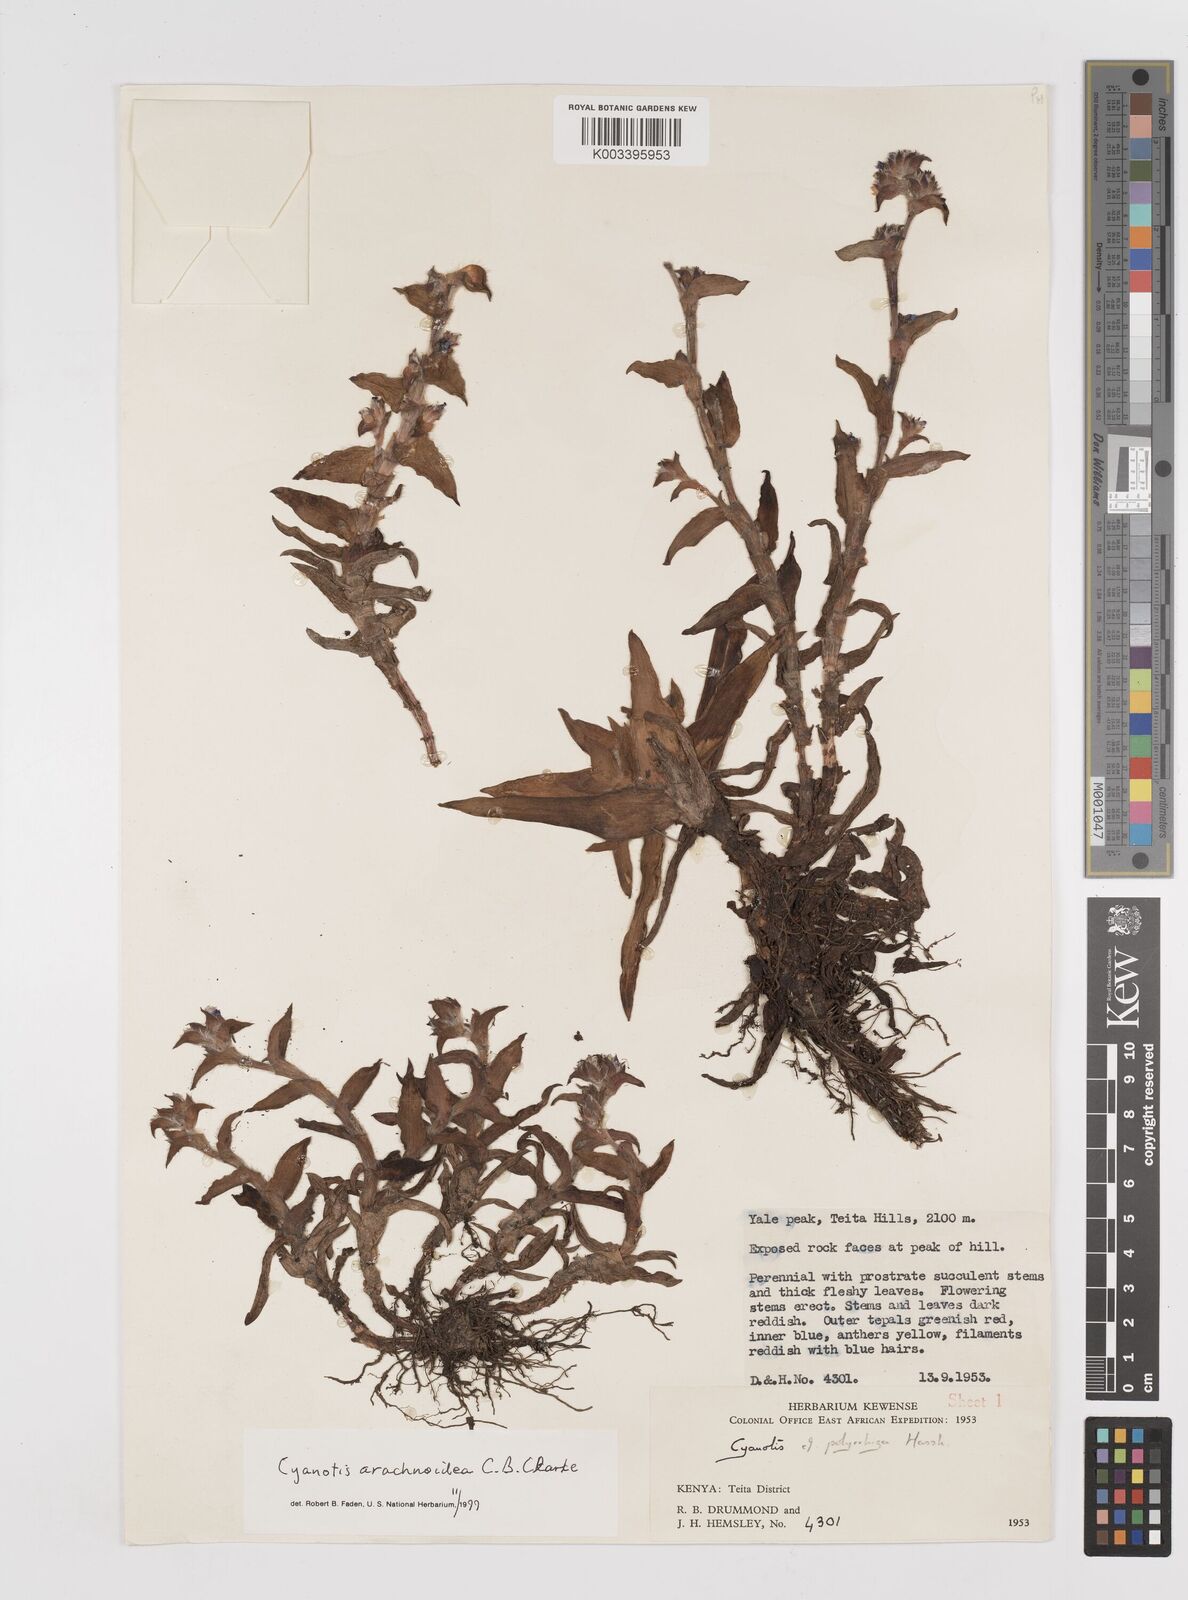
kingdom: Plantae
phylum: Tracheophyta
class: Liliopsida
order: Commelinales
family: Commelinaceae
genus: Cyanotis
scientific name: Cyanotis arachnoidea
